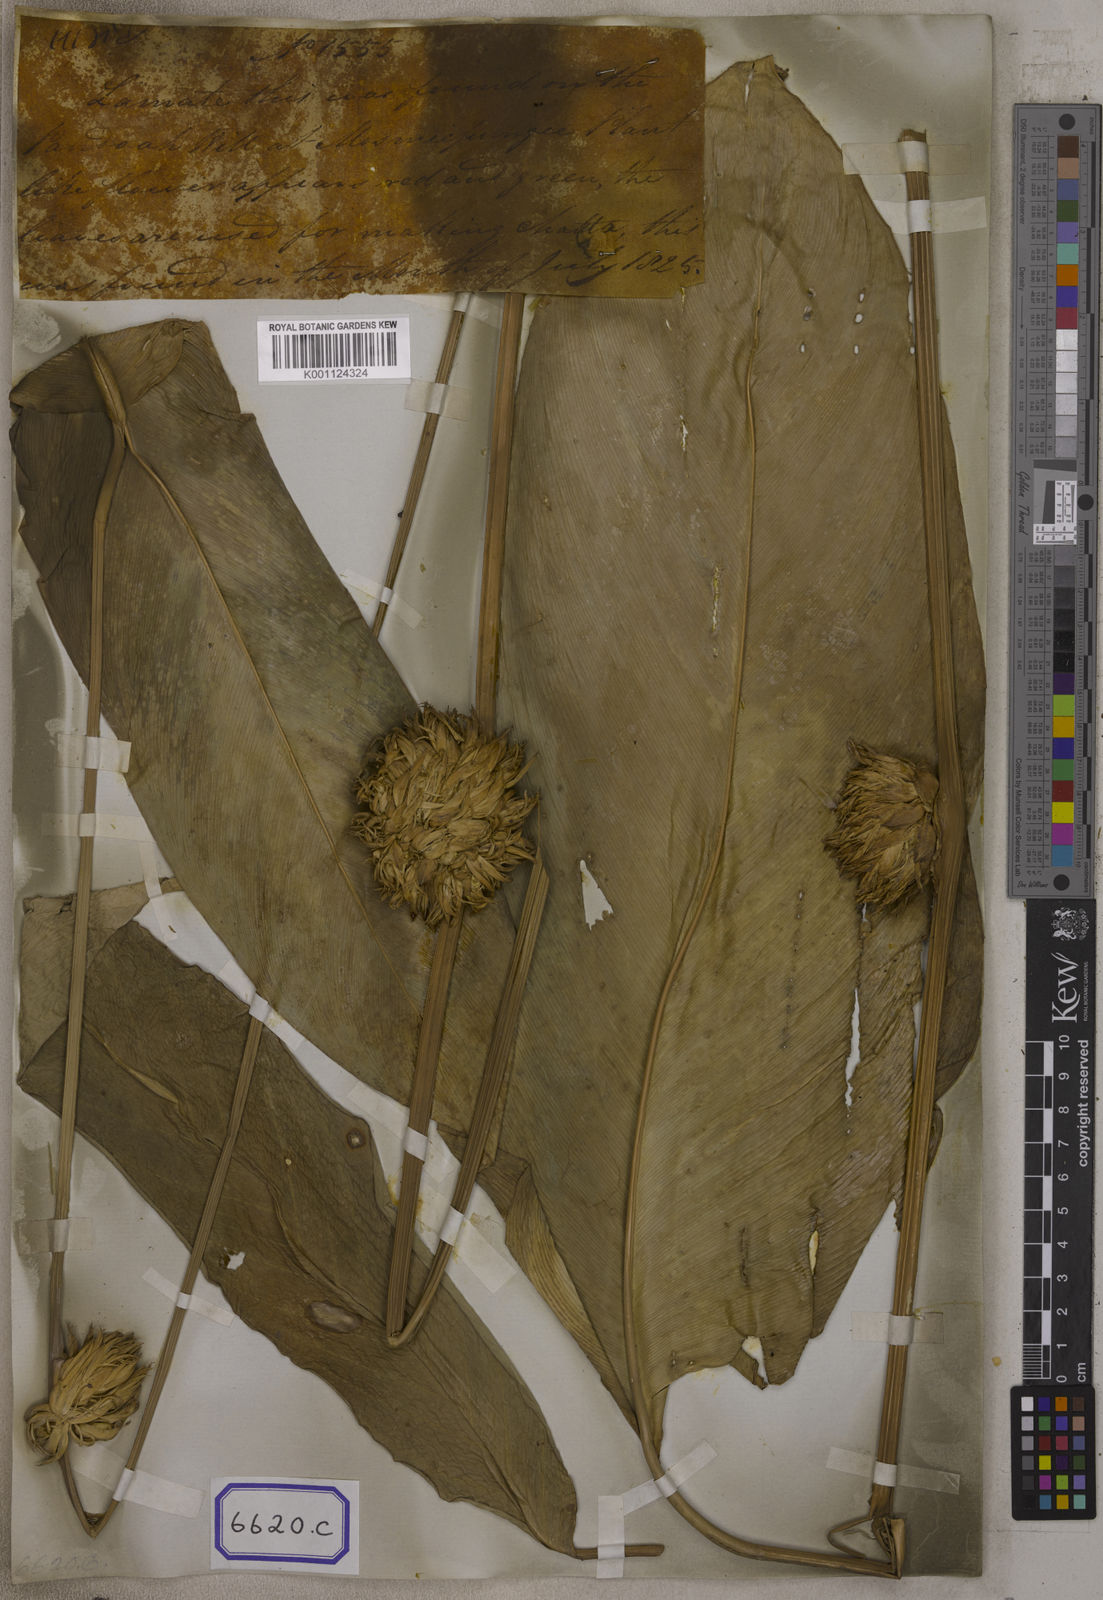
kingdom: Plantae
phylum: Tracheophyta
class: Liliopsida
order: Zingiberales
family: Marantaceae
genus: Stachyphrynium
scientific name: Stachyphrynium placentarium
